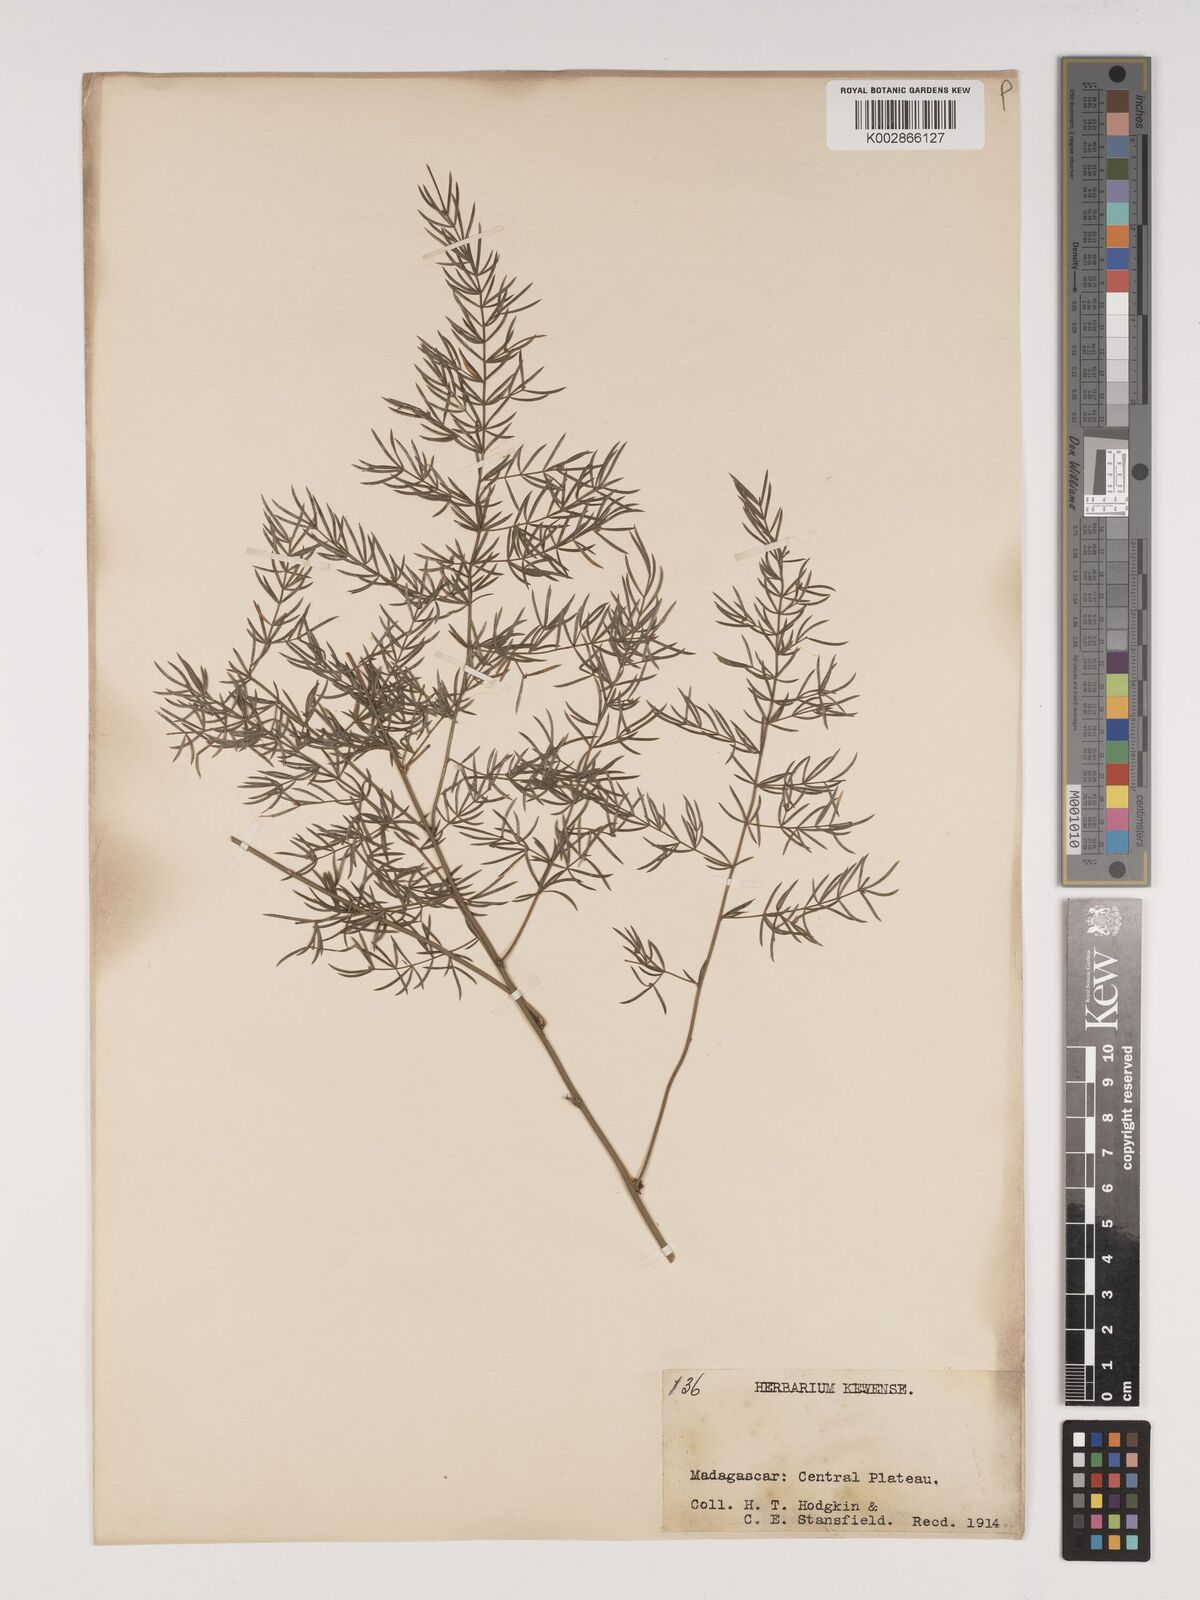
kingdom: Plantae
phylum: Tracheophyta
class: Liliopsida
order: Asparagales
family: Asparagaceae
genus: Asparagus
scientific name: Asparagus simulans
